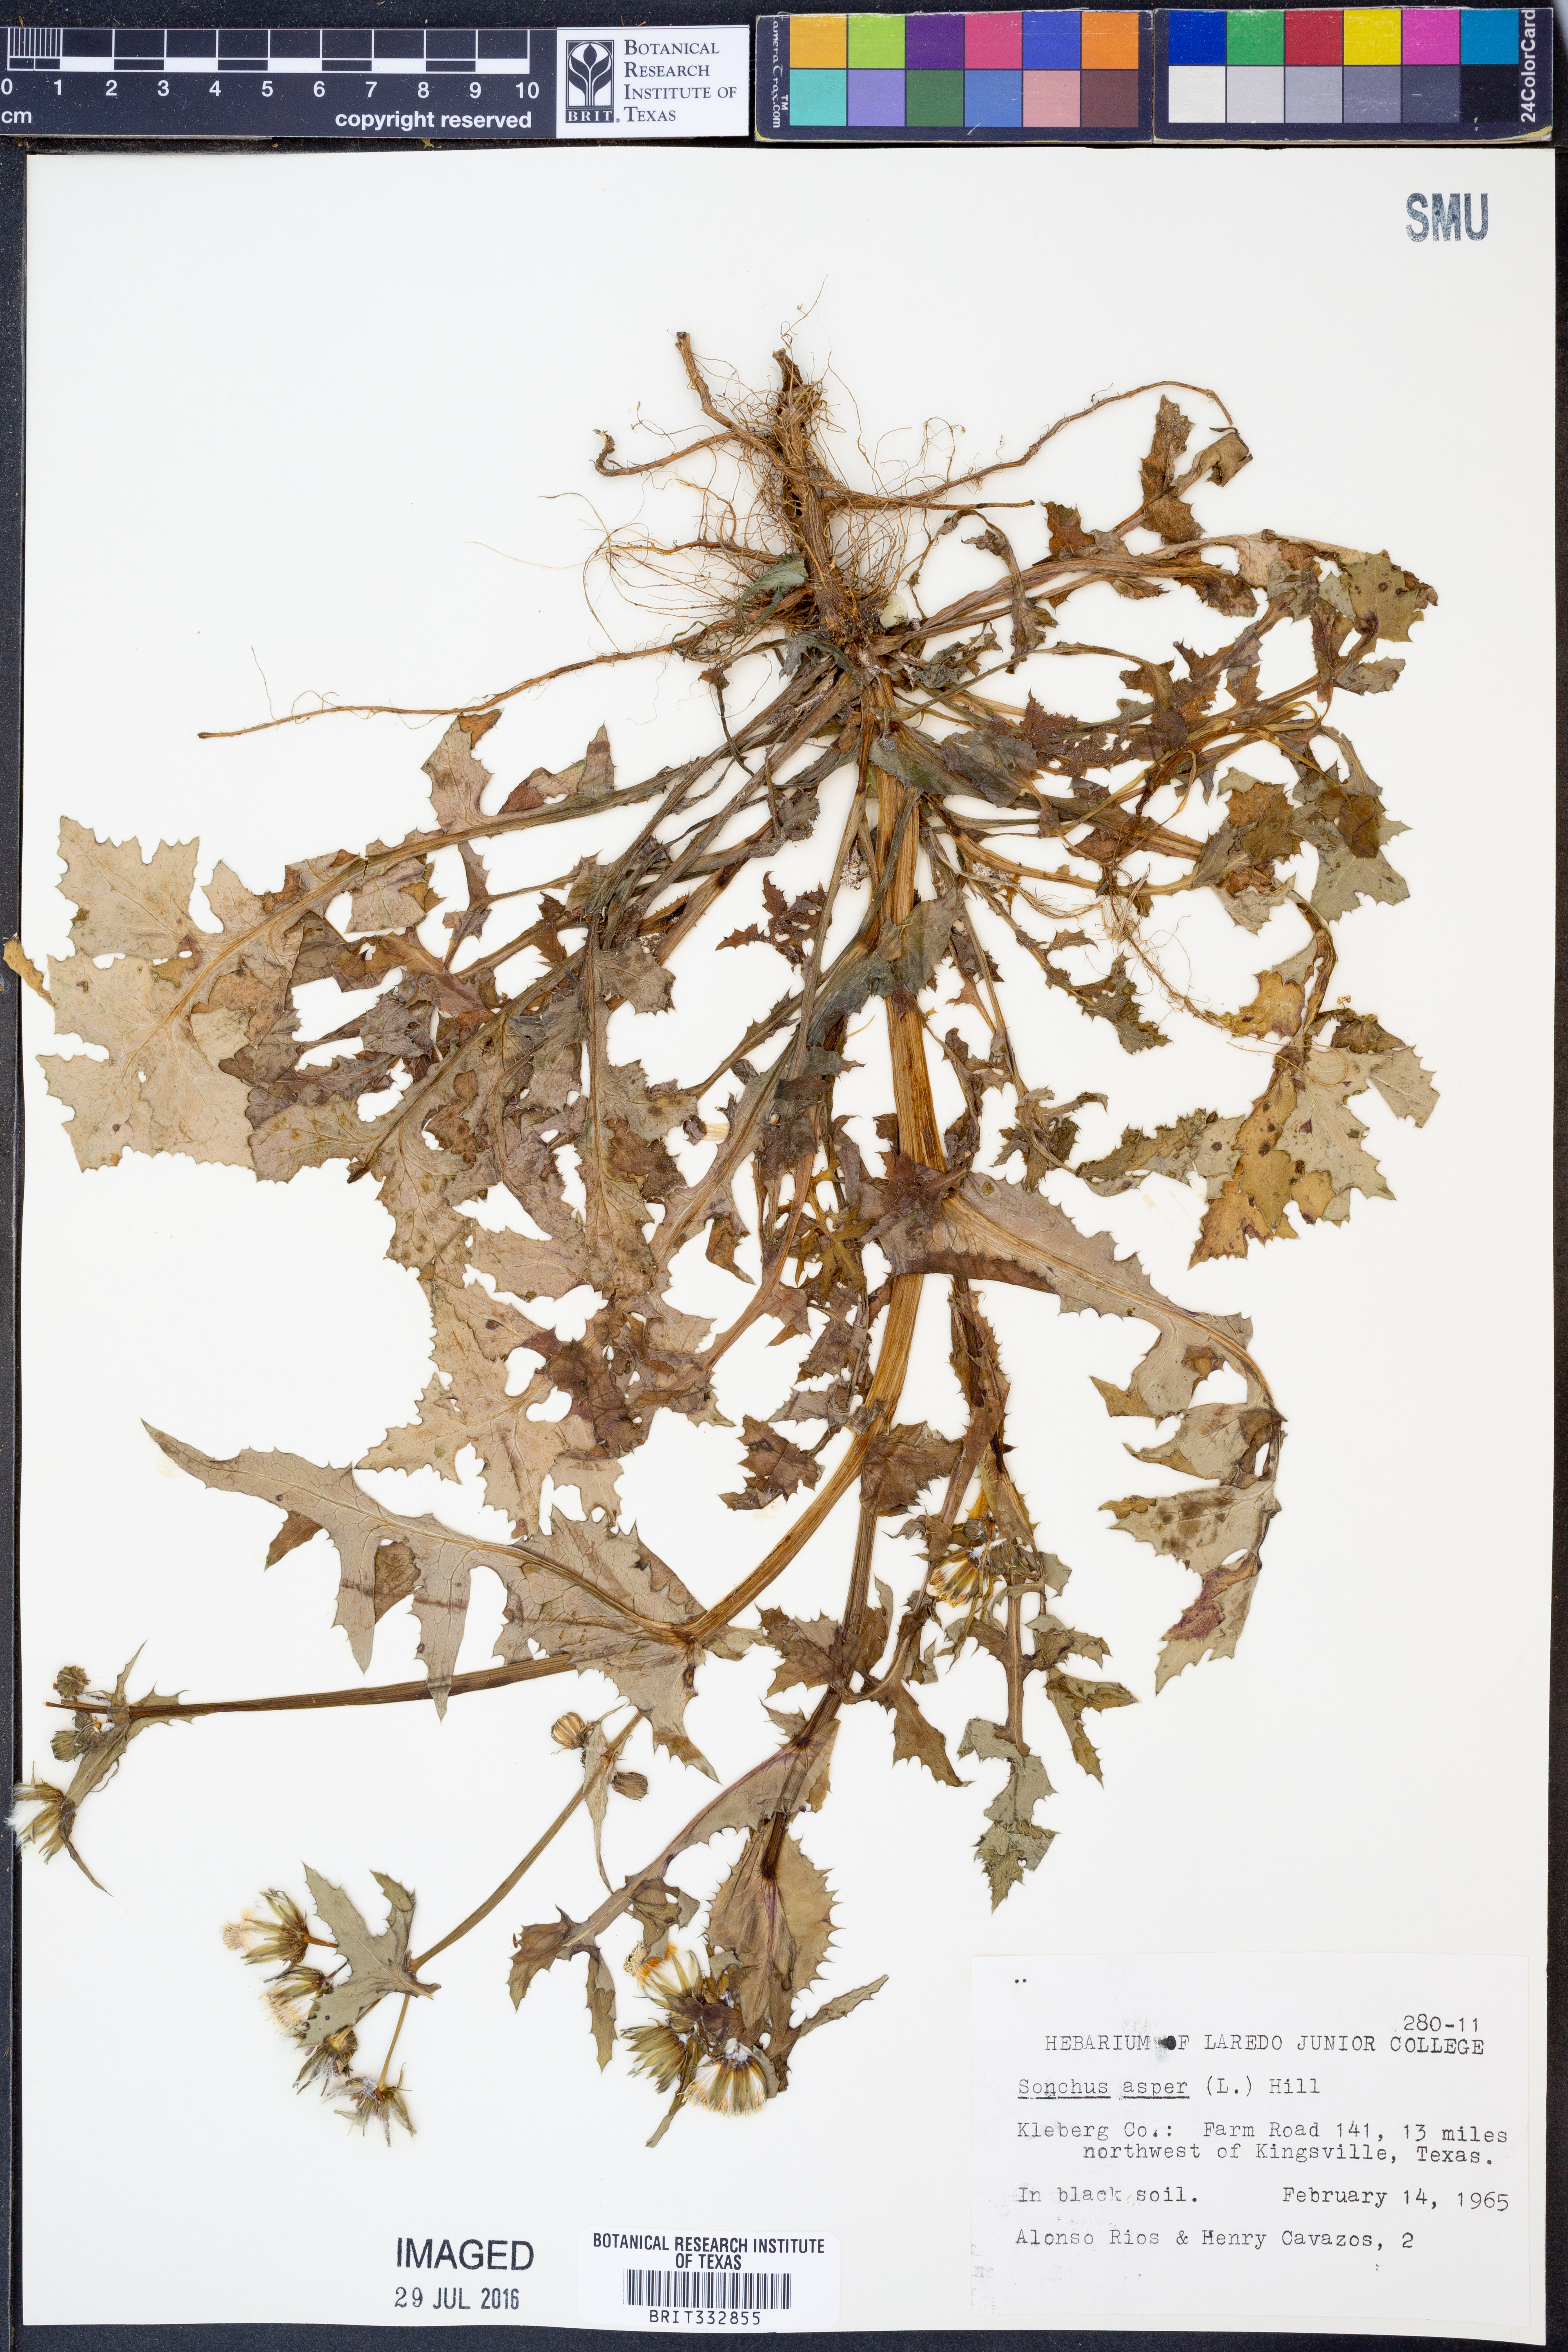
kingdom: Plantae
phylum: Tracheophyta
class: Magnoliopsida
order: Asterales
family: Asteraceae
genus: Sonchus
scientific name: Sonchus asper
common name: Prickly sow-thistle
